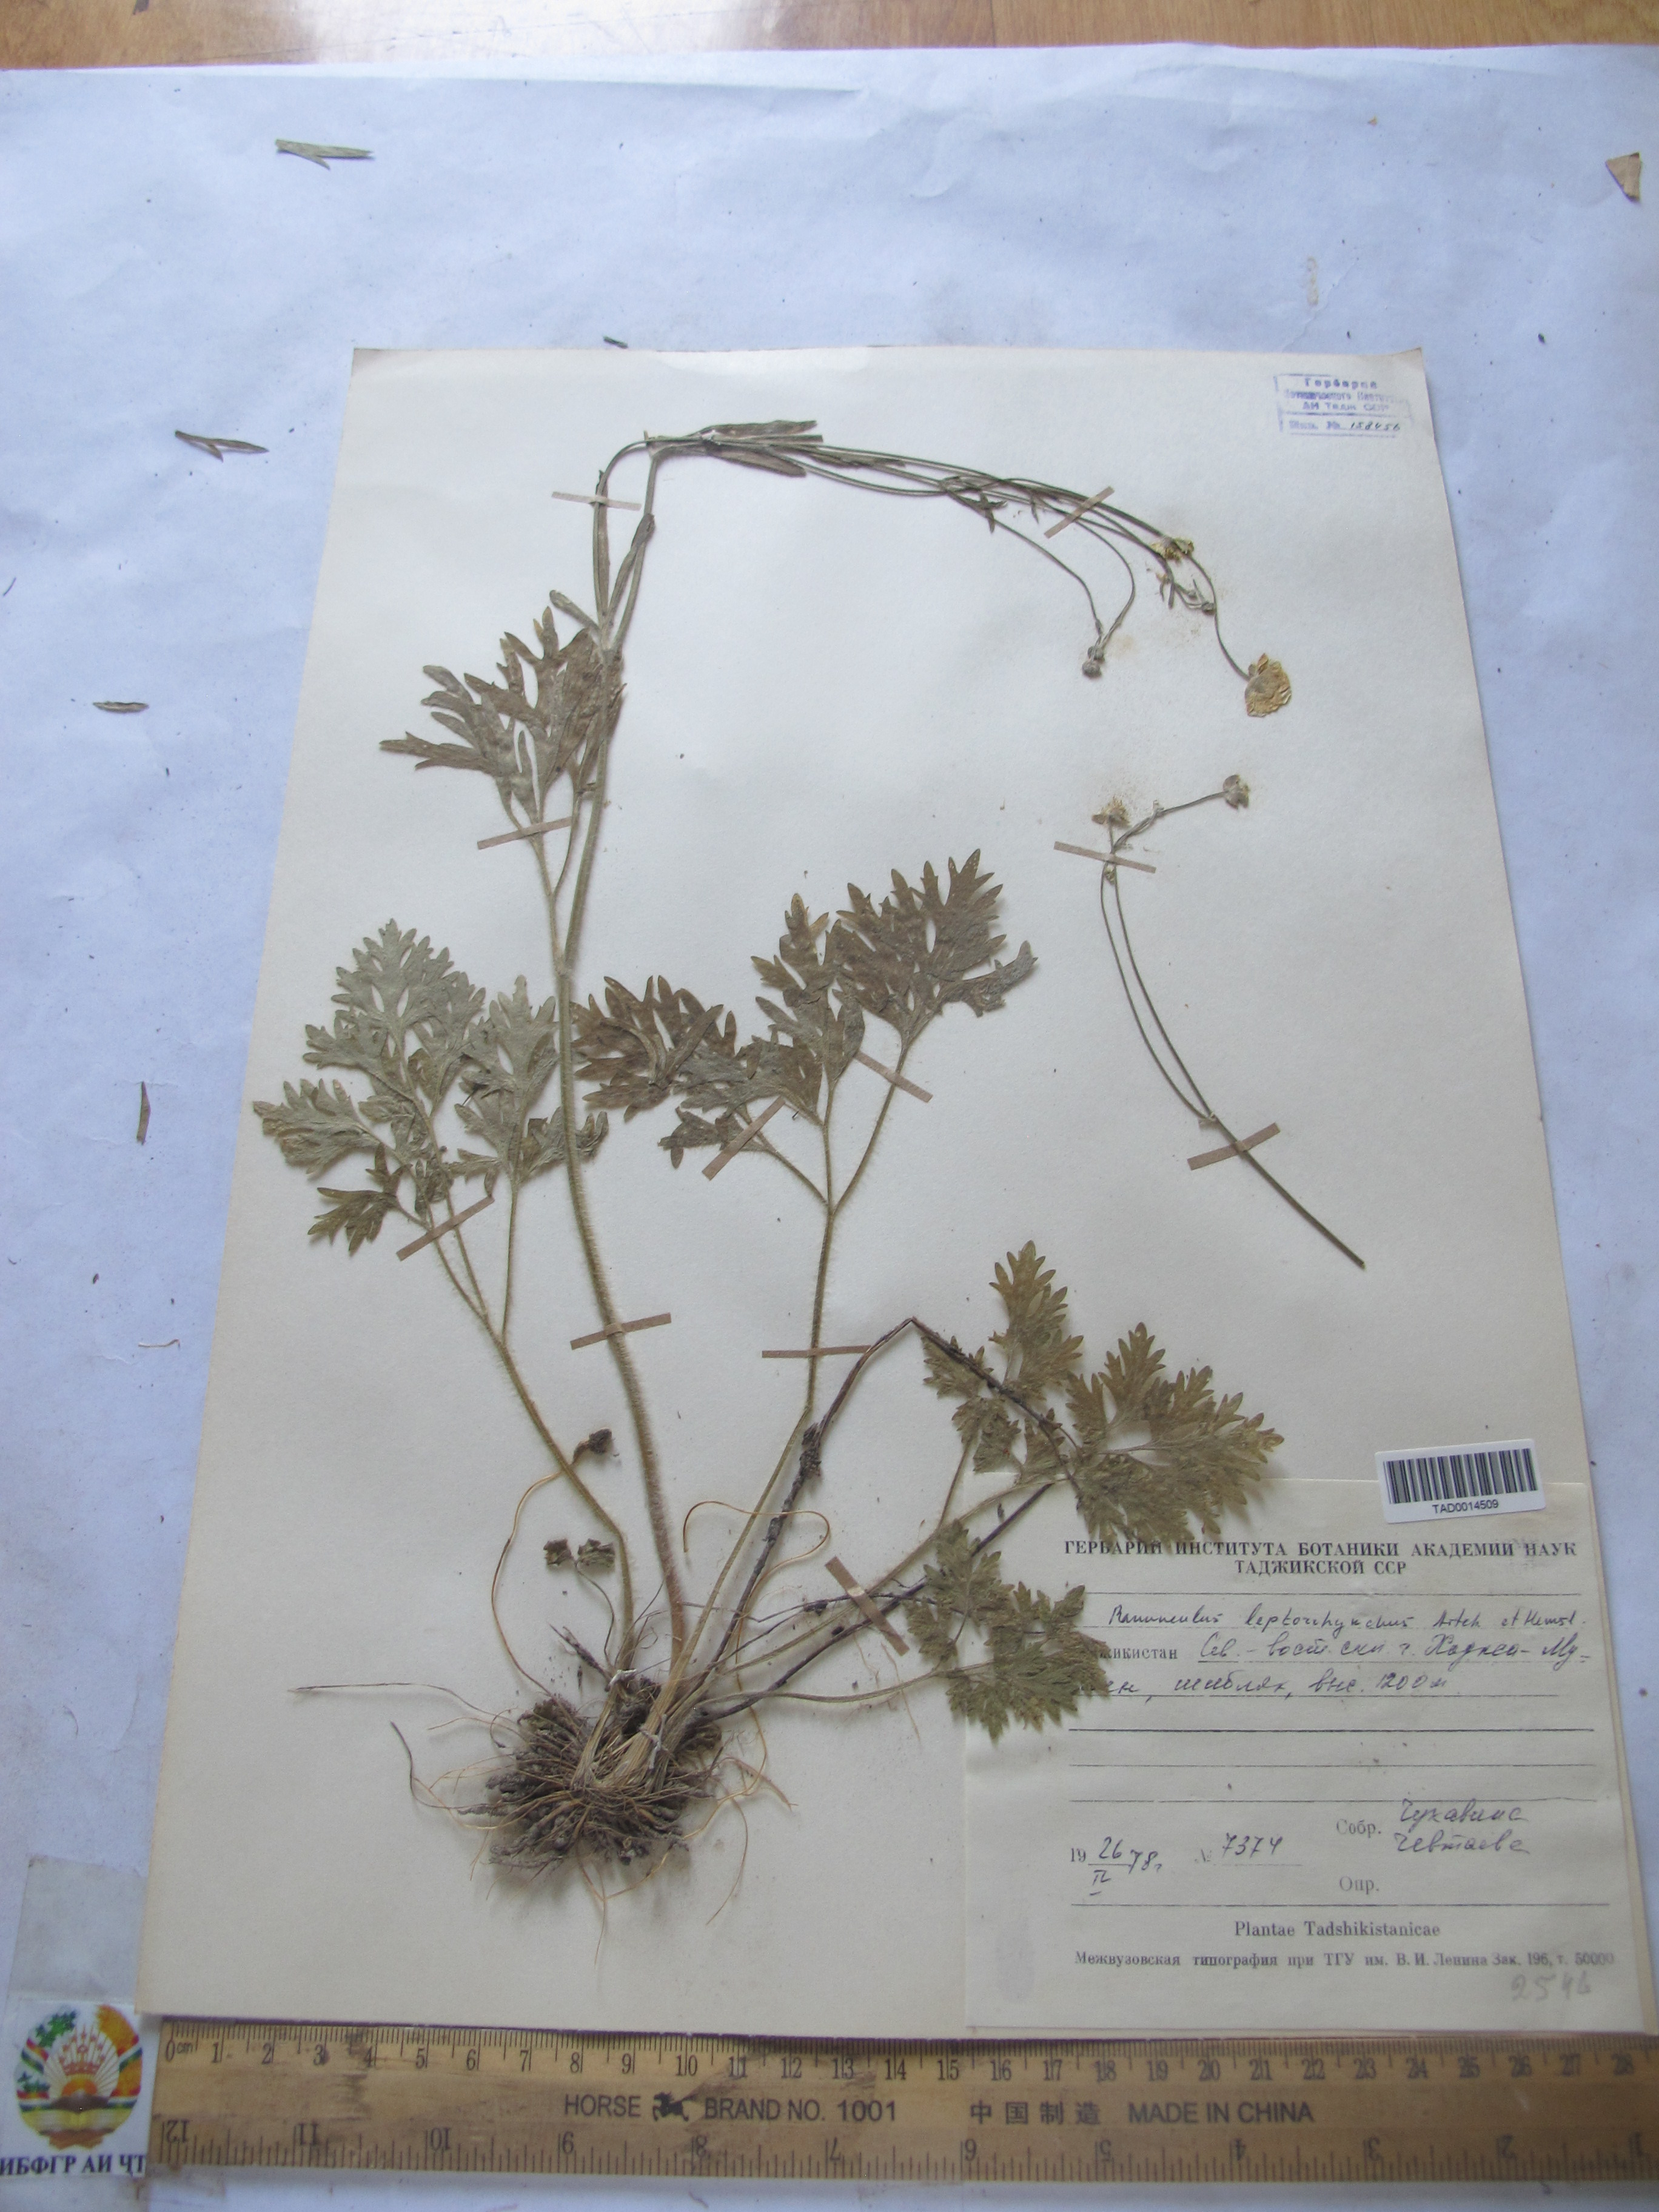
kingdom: Plantae
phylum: Tracheophyta
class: Magnoliopsida
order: Ranunculales
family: Ranunculaceae
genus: Ranunculus
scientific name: Ranunculus leptorrhynchus
